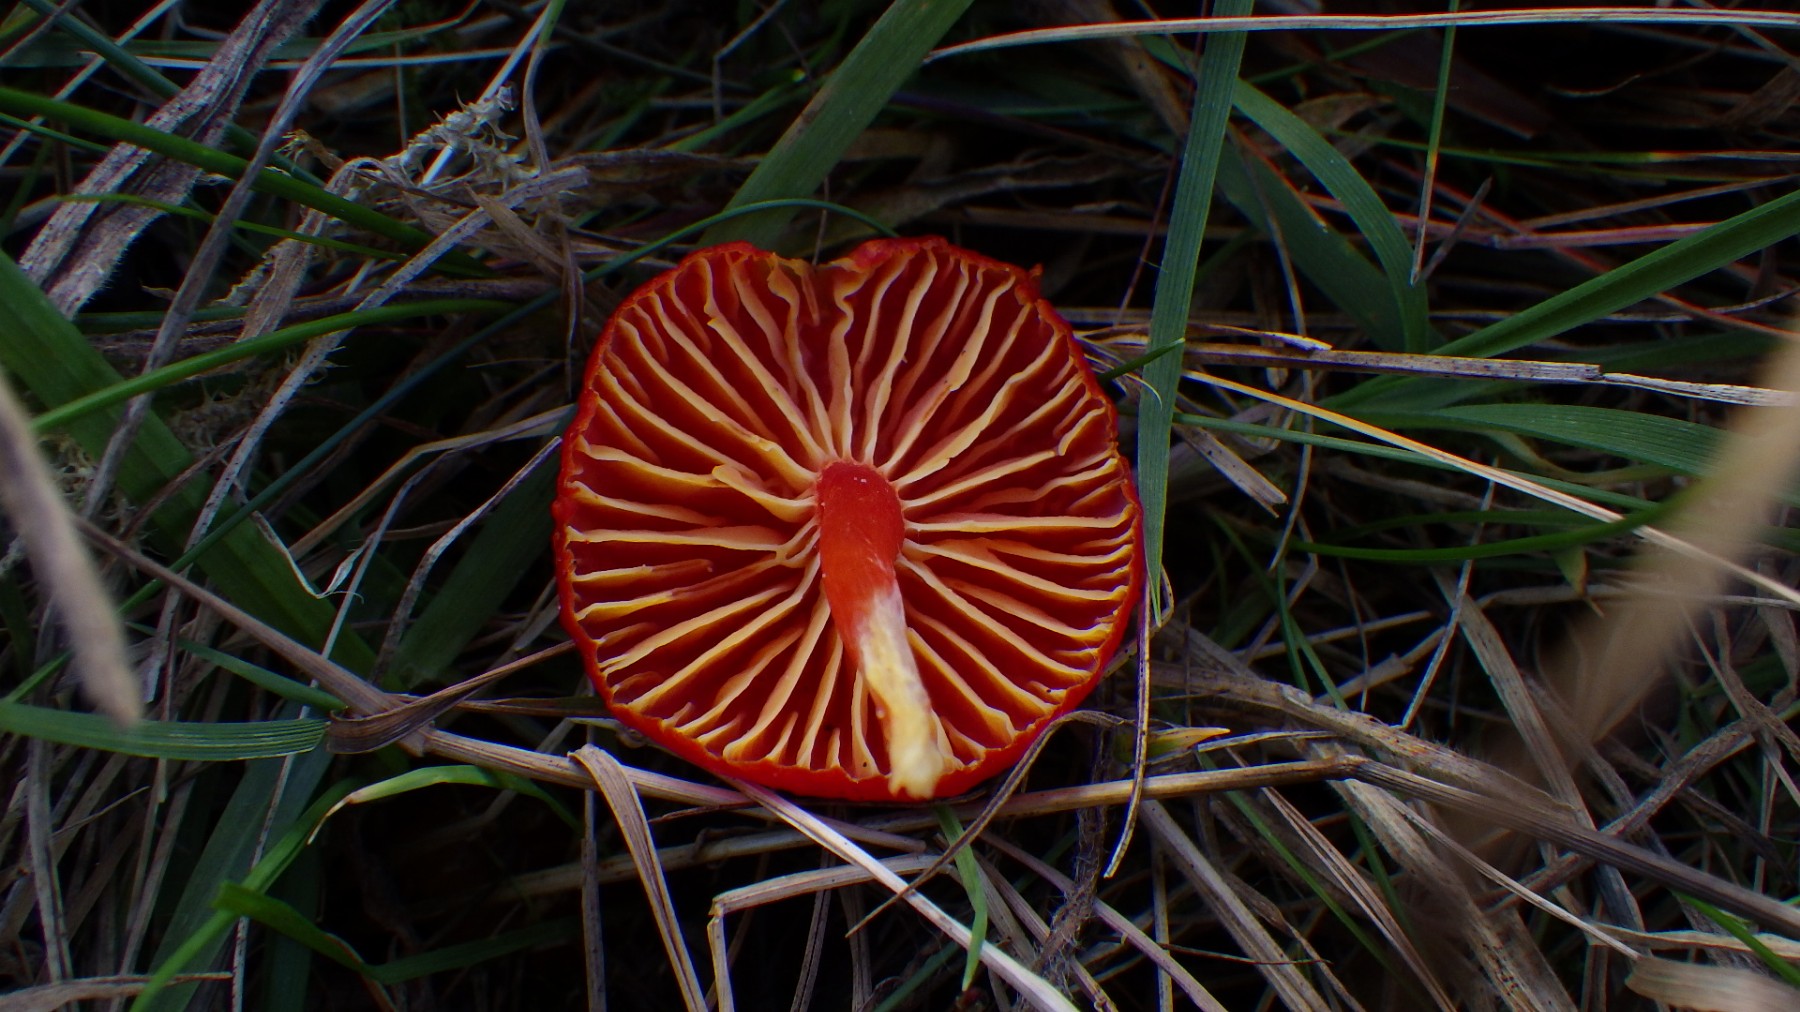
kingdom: Fungi
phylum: Basidiomycota
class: Agaricomycetes
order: Agaricales
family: Hygrophoraceae
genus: Hygrocybe
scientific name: Hygrocybe coccinea
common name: cinnober-vokshat
